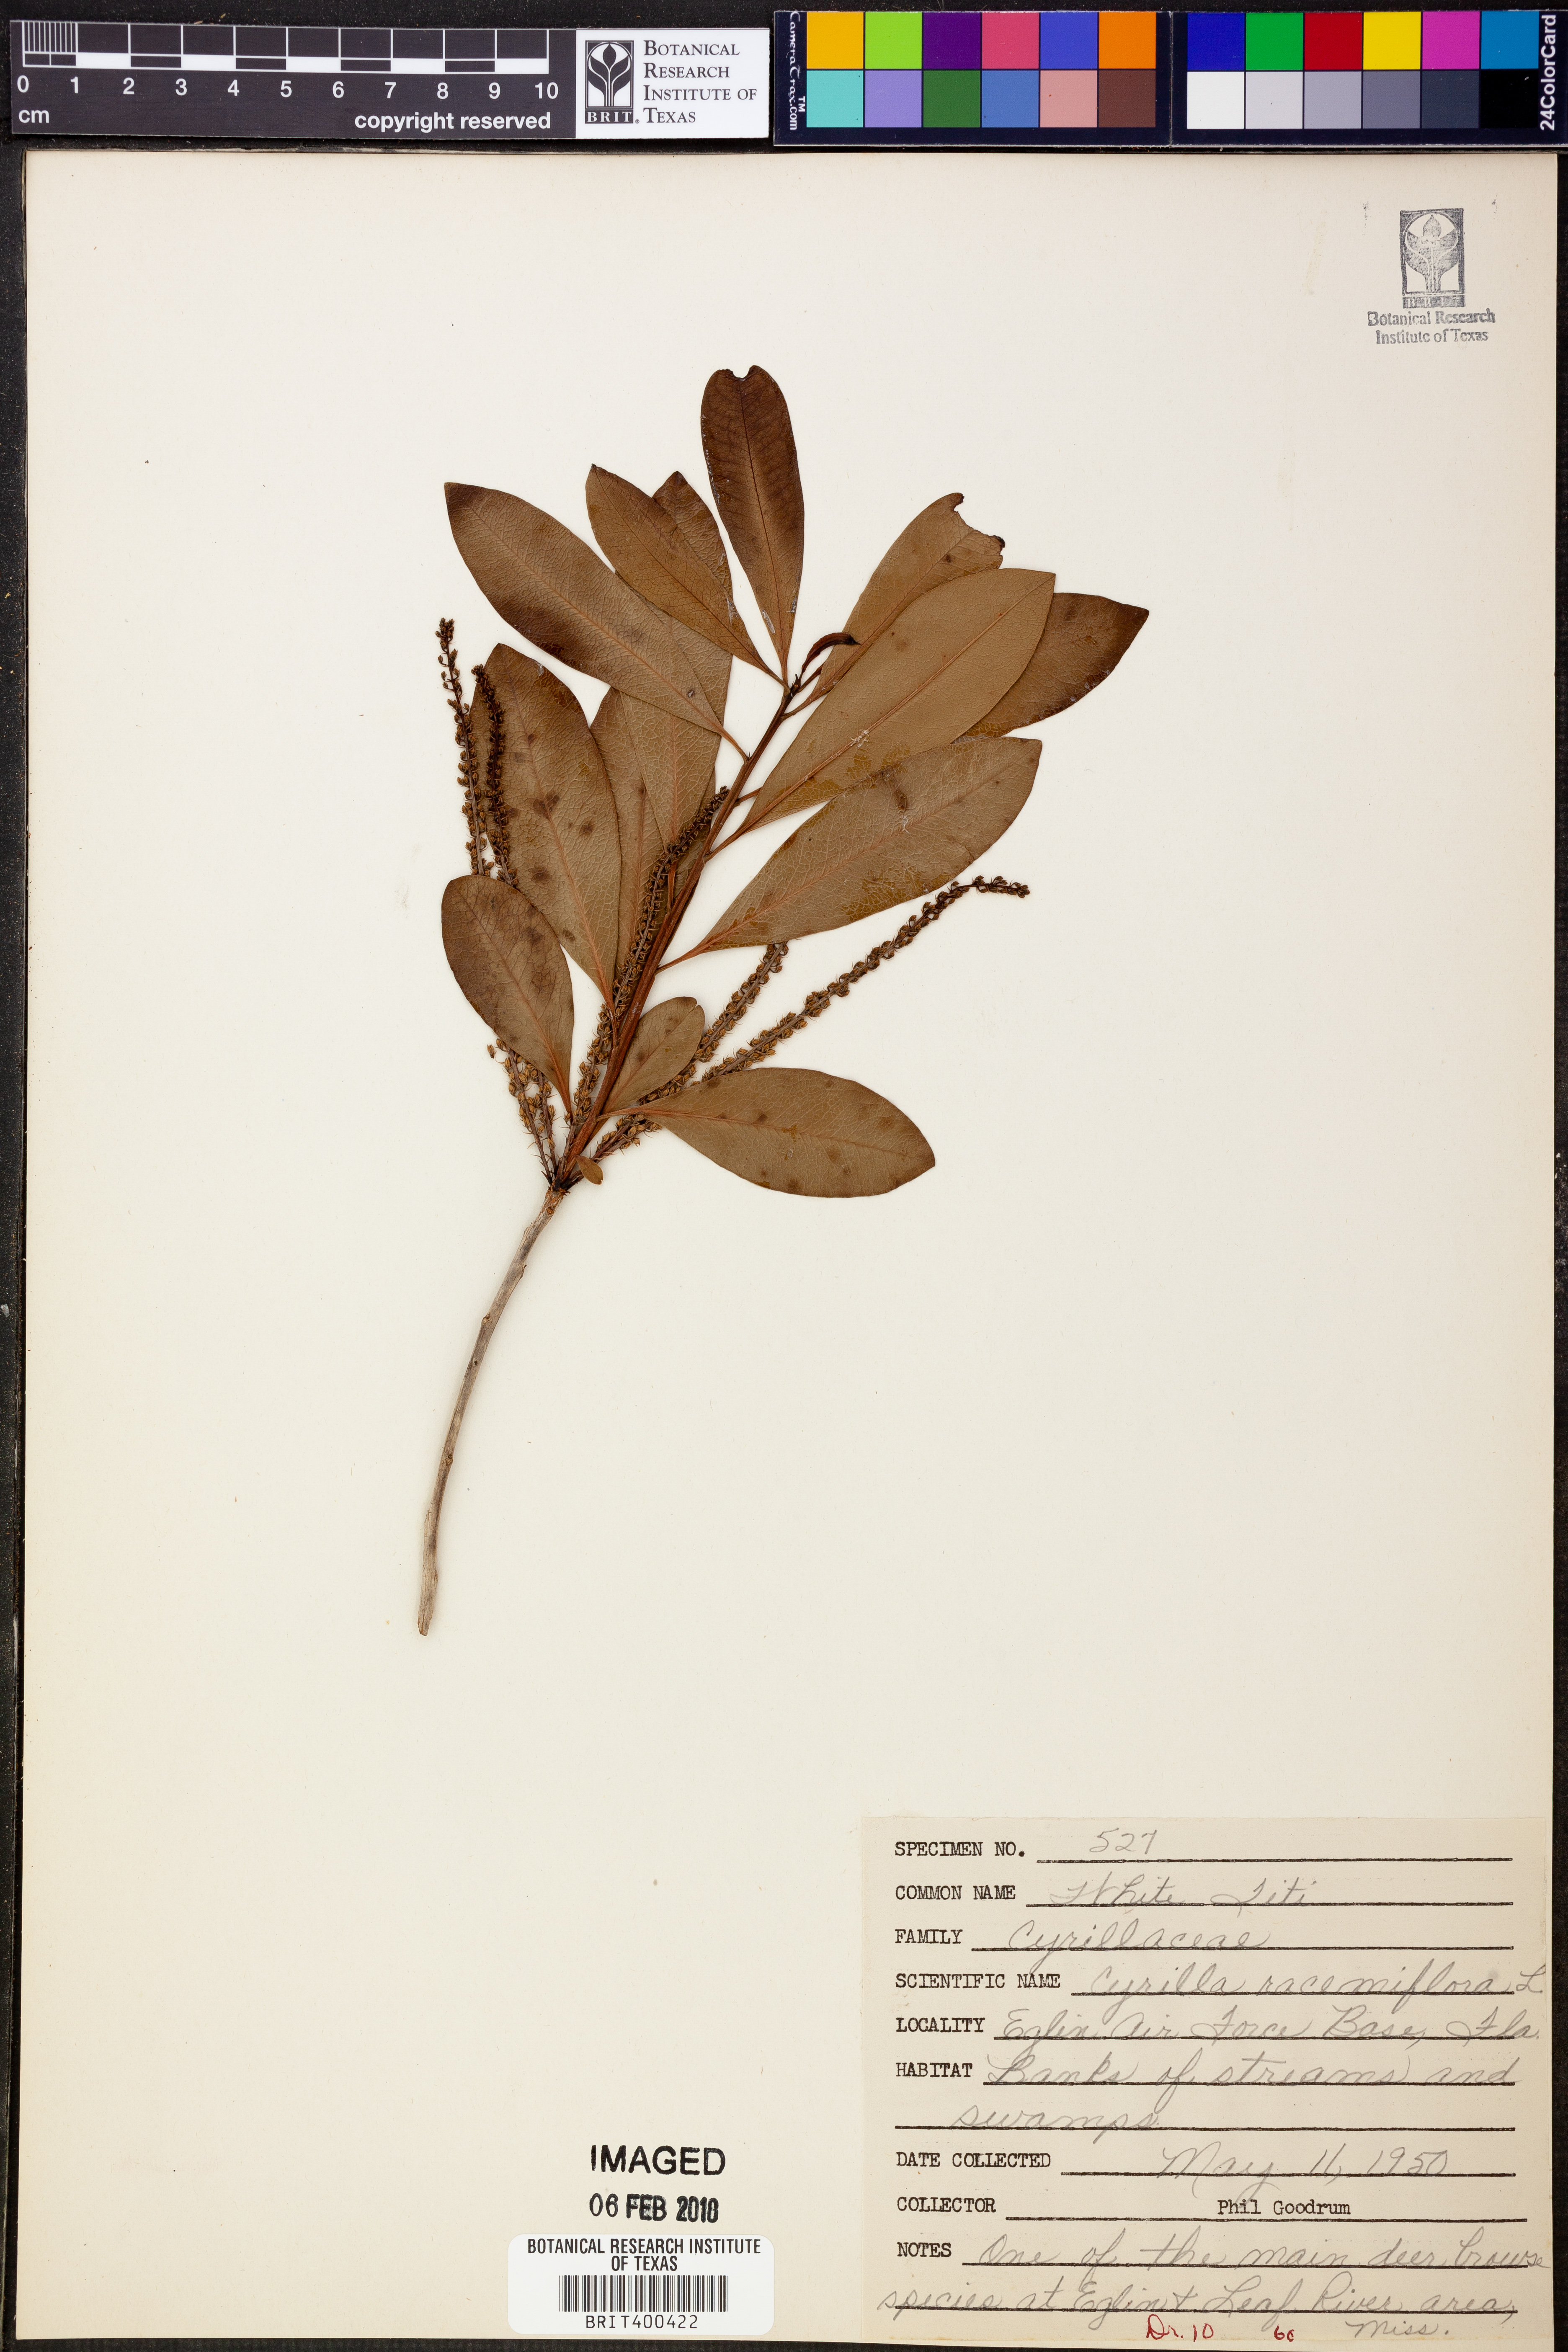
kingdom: Plantae
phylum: Tracheophyta
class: Magnoliopsida
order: Ericales
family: Cyrillaceae
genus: Cyrilla
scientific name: Cyrilla racemiflora
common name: Black titi
